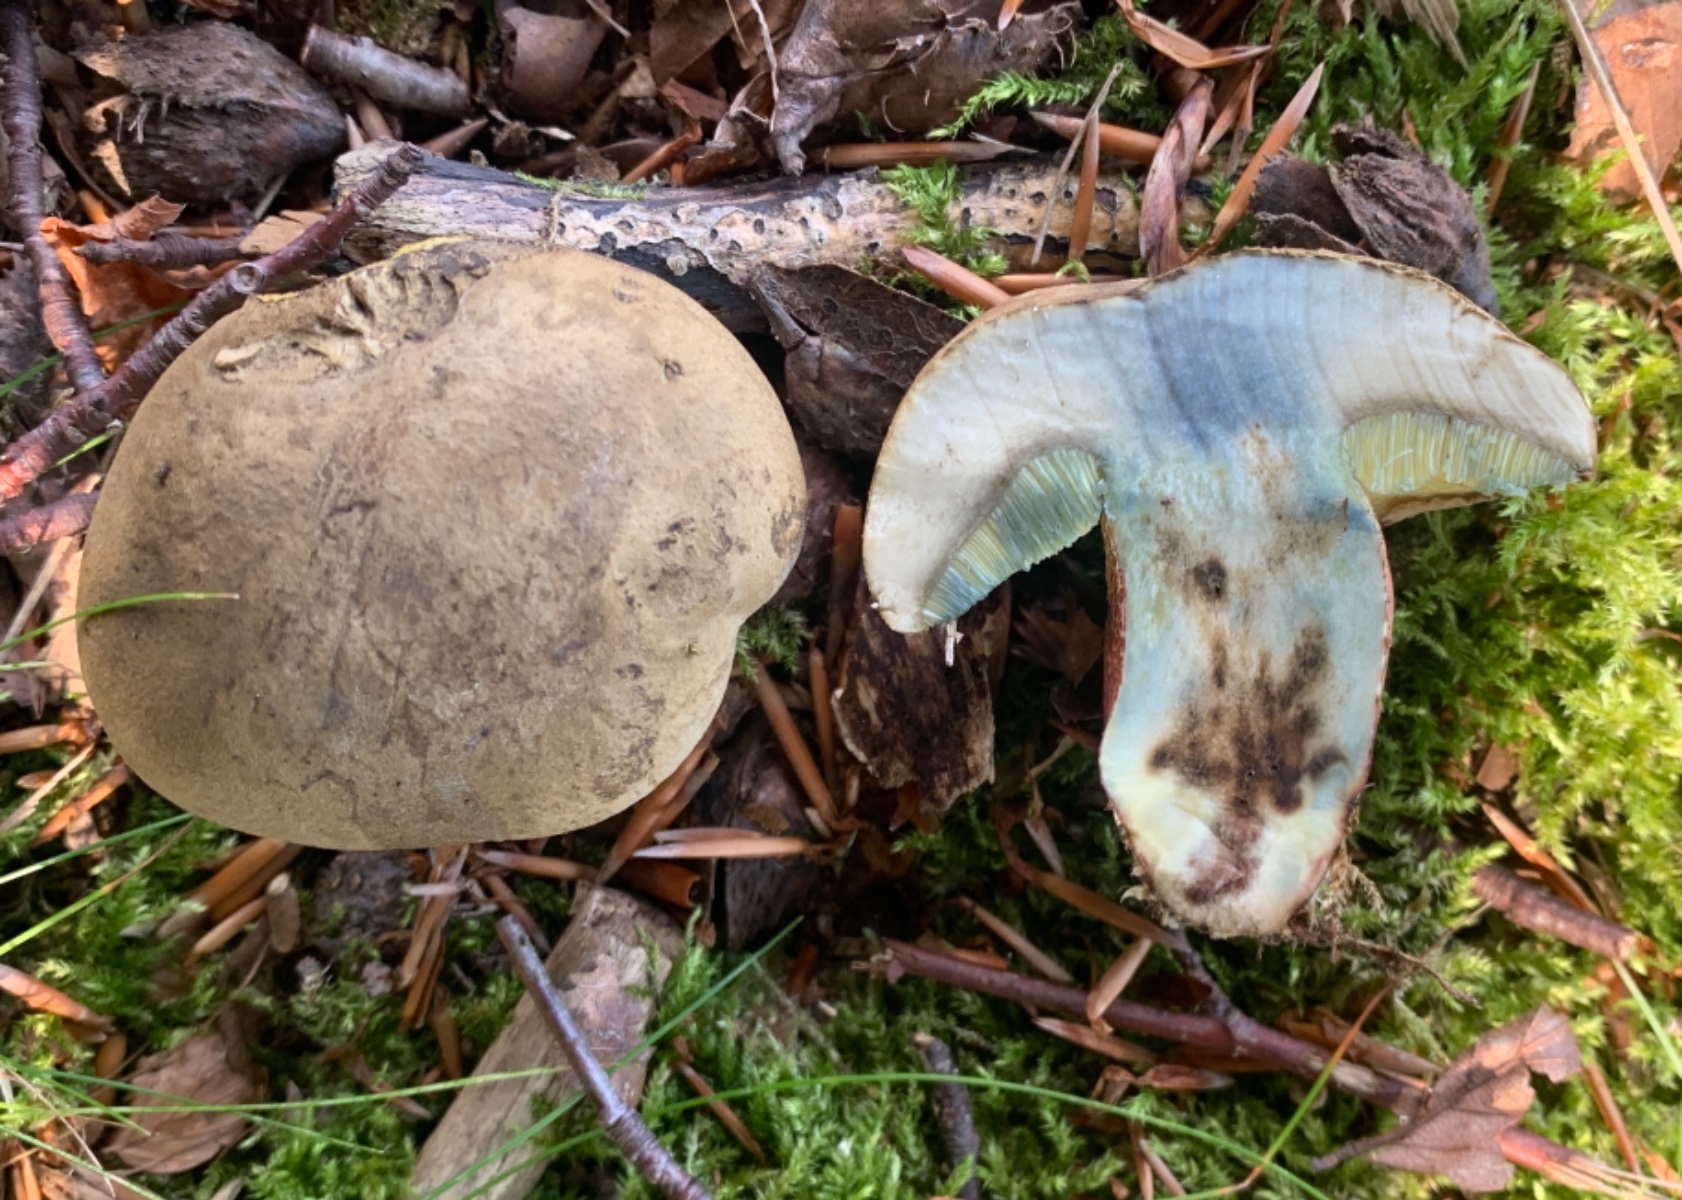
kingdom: Fungi
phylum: Basidiomycota
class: Agaricomycetes
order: Boletales
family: Boletaceae
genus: Caloboletus
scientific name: Caloboletus calopus
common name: skønfodet rørhat
